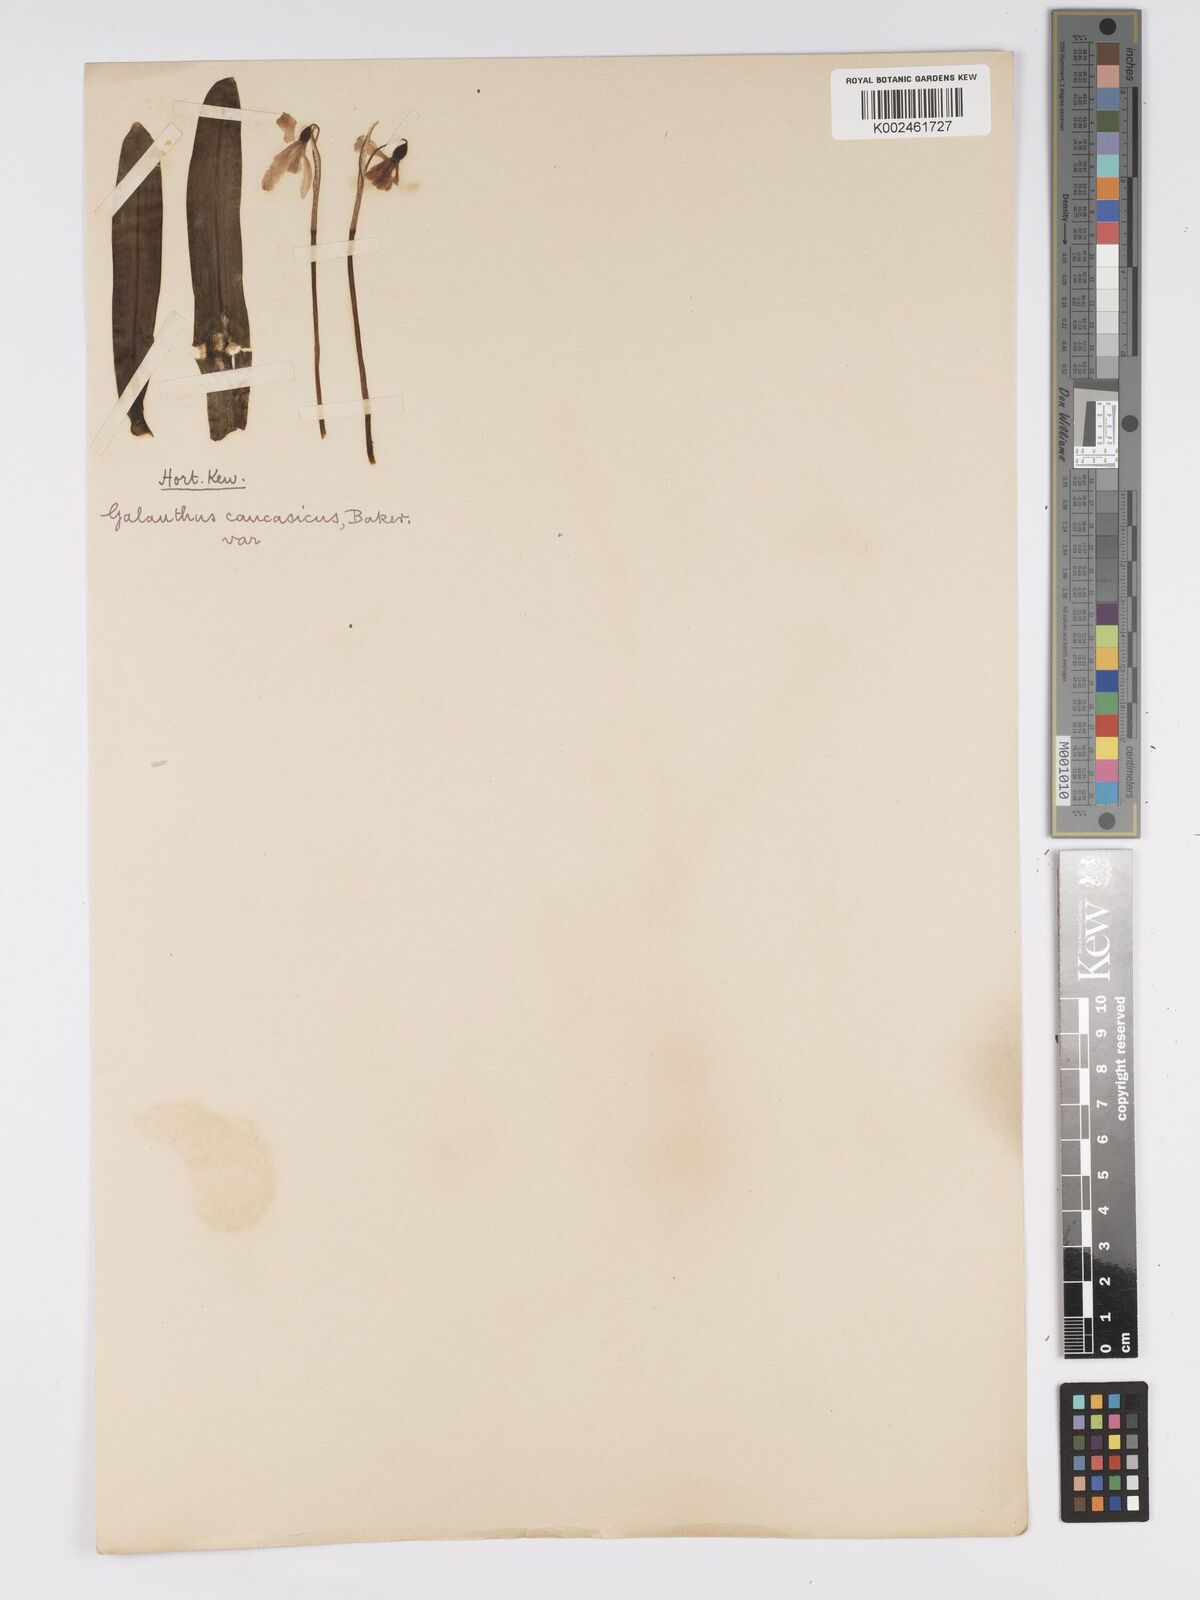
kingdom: Plantae
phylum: Tracheophyta
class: Liliopsida
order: Asparagales
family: Amaryllidaceae
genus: Galanthus
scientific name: Galanthus alpinus
